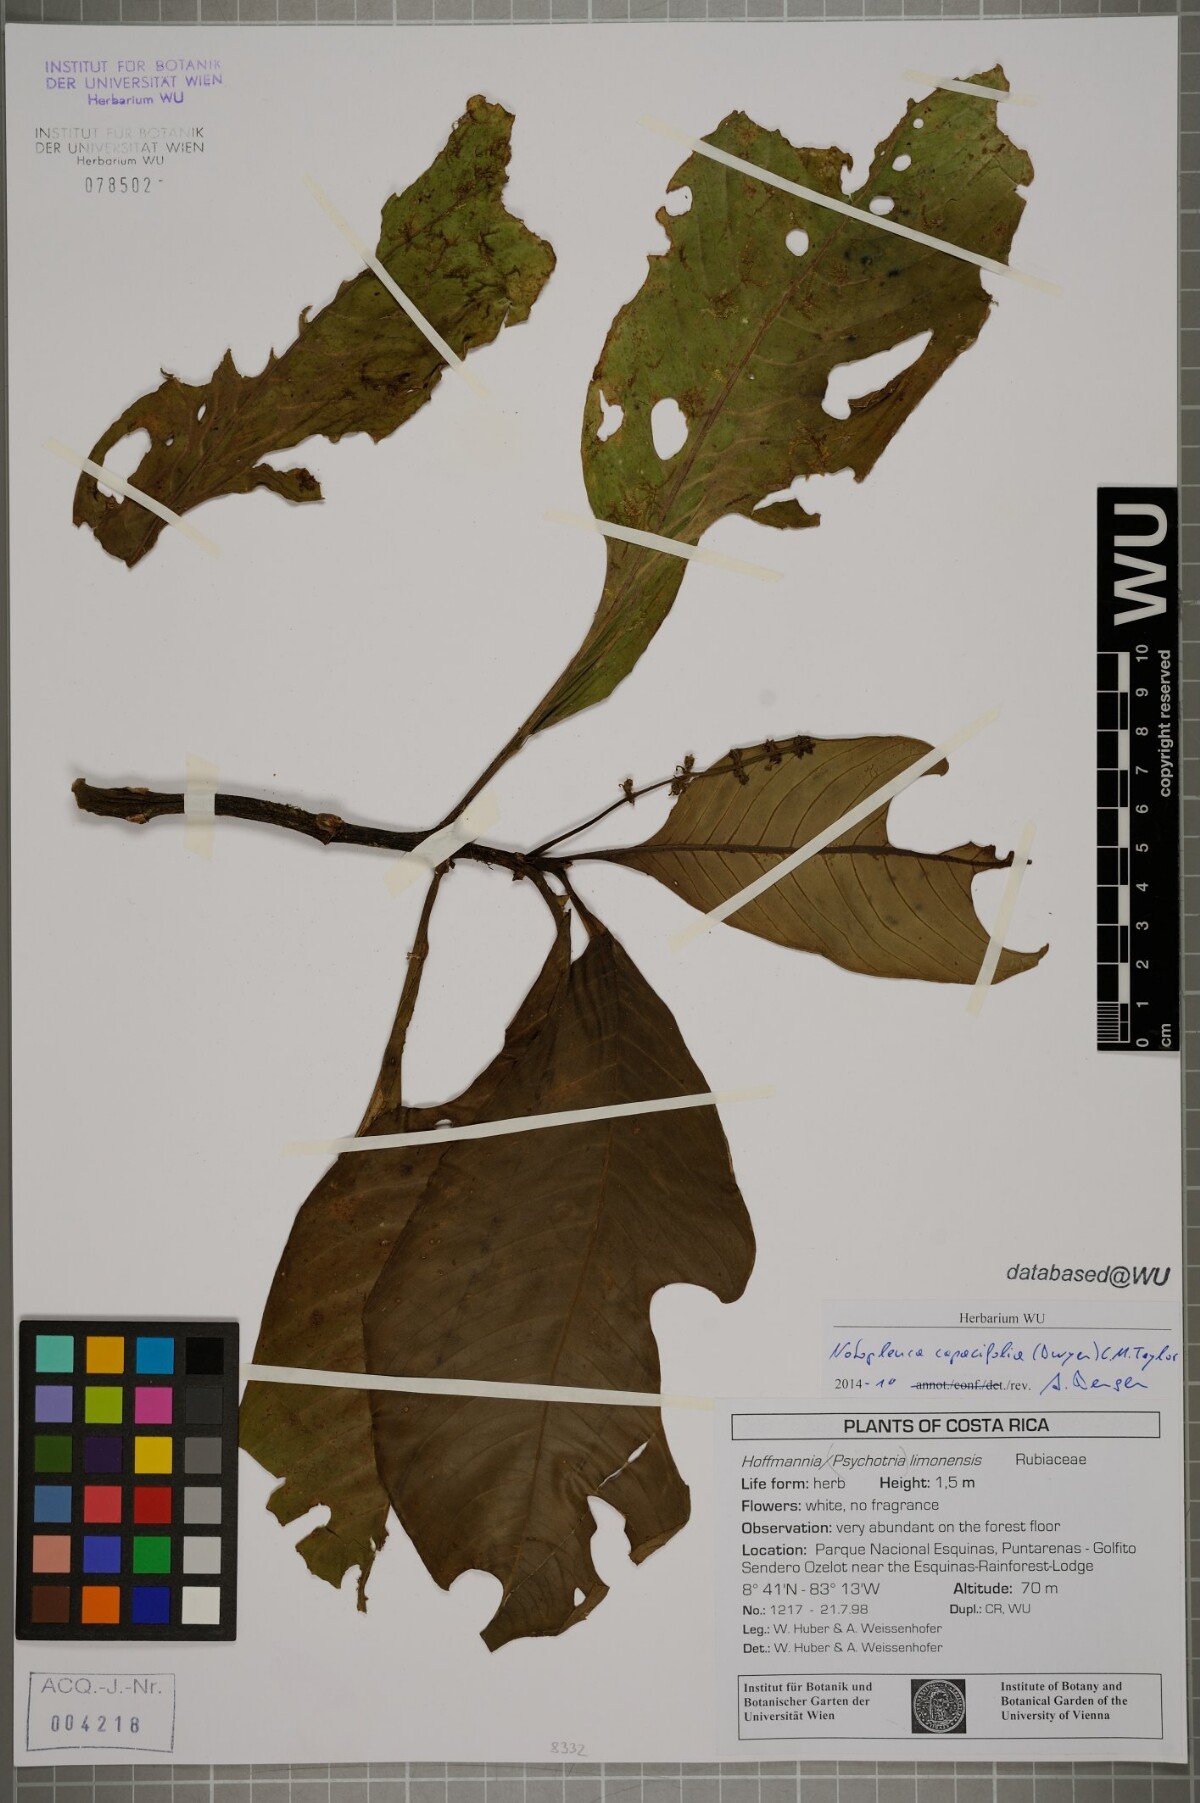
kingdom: Plantae
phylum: Tracheophyta
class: Magnoliopsida
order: Gentianales
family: Rubiaceae
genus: Notopleura
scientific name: Notopleura capacifolia
